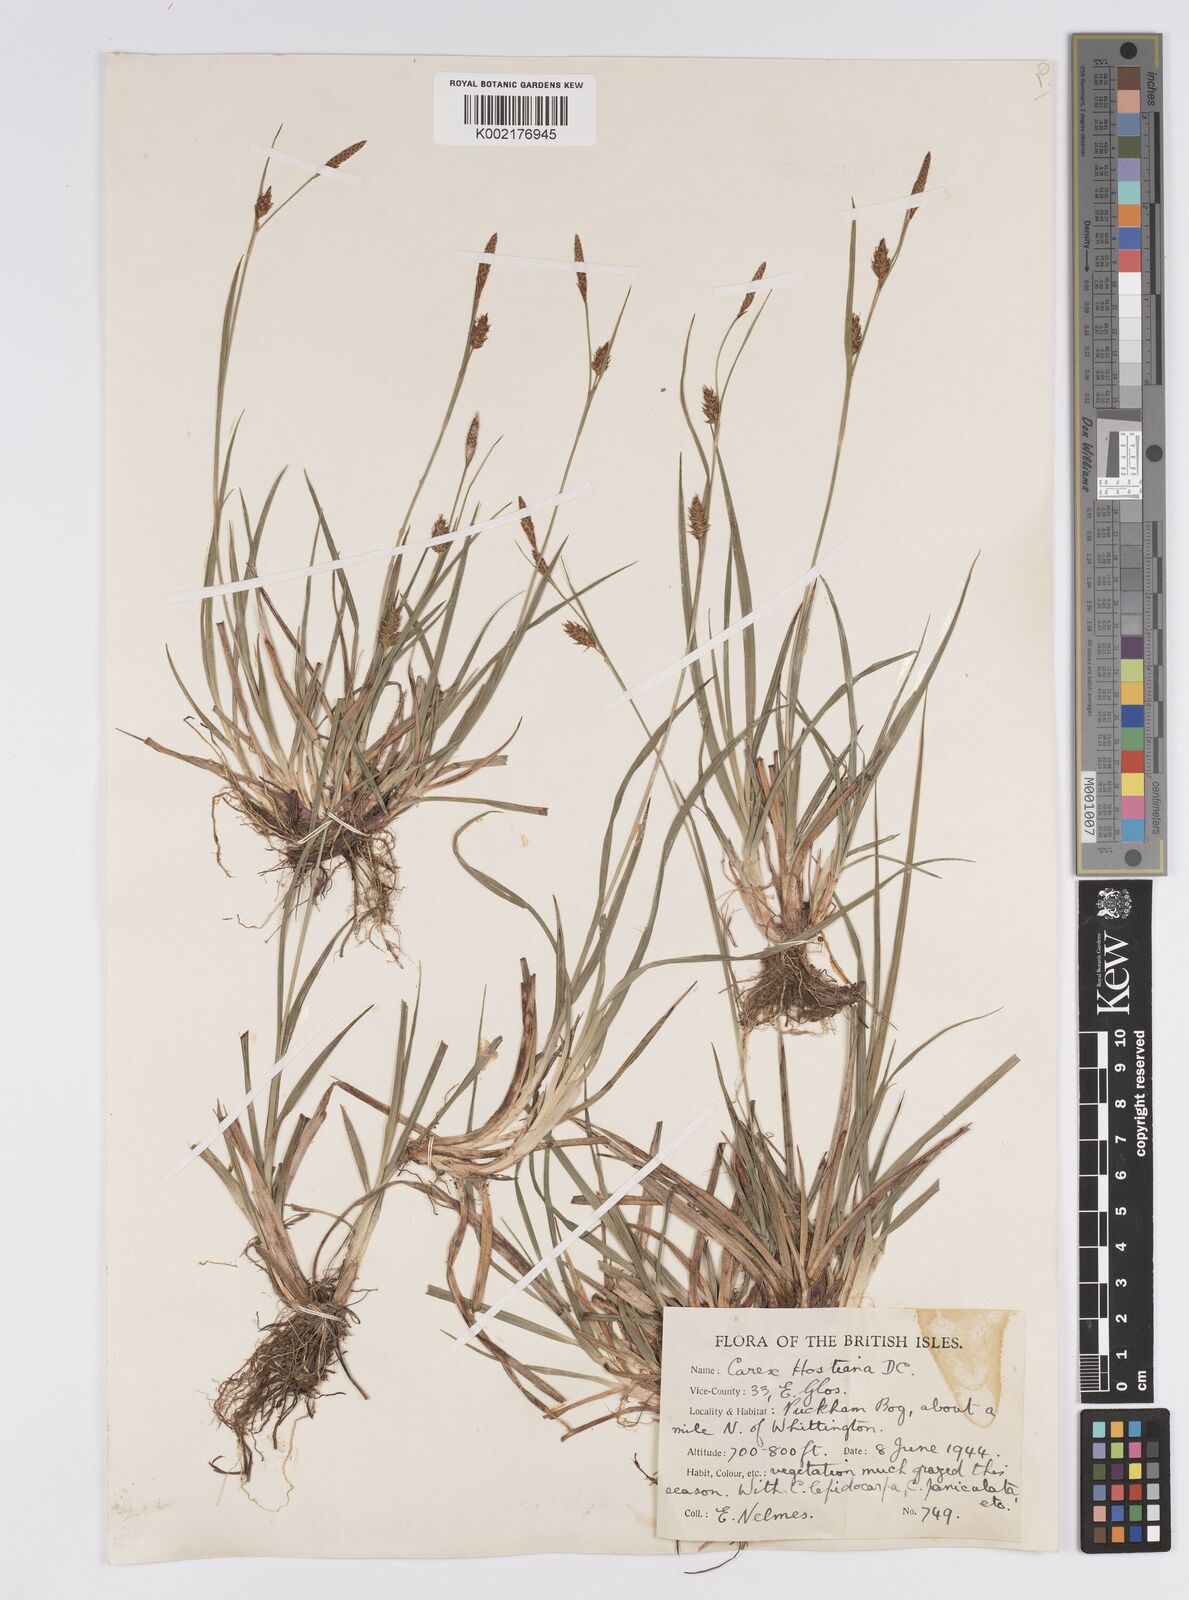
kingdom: Plantae
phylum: Tracheophyta
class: Liliopsida
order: Poales
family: Cyperaceae
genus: Carex
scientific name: Carex hostiana
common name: Tawny sedge
